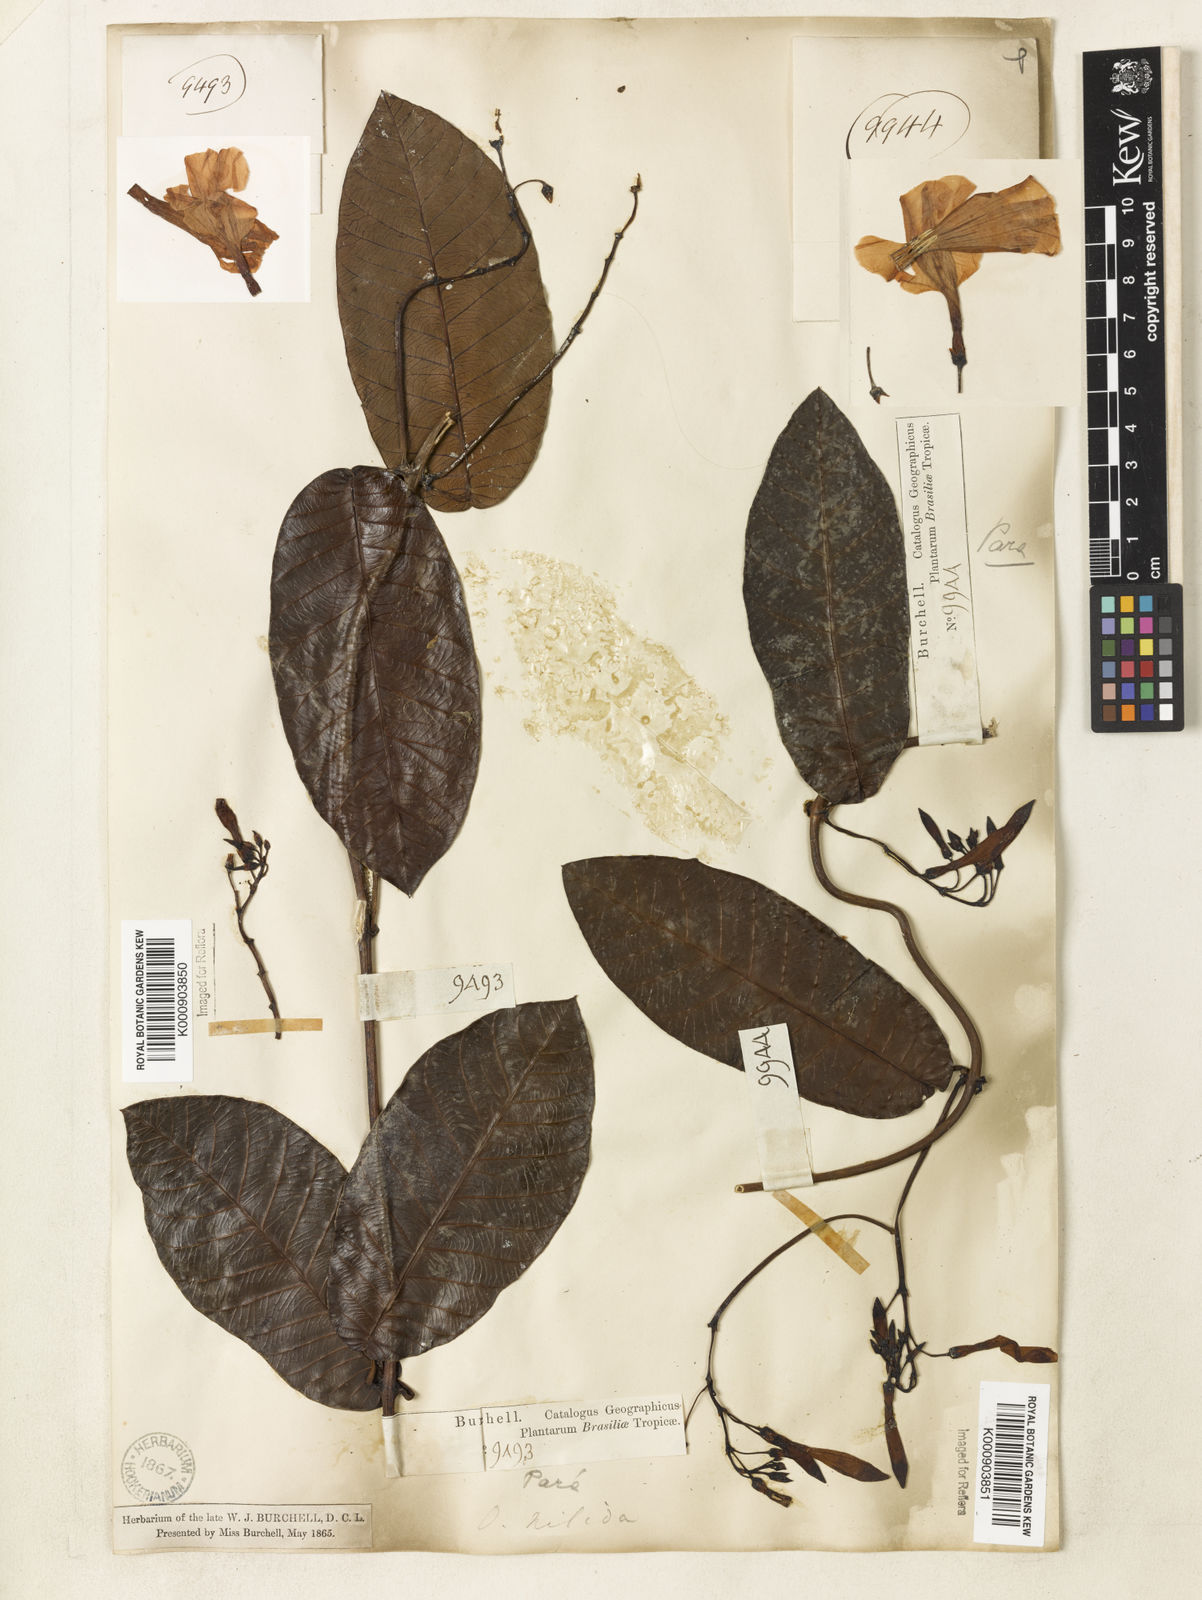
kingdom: Plantae
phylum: Tracheophyta
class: Magnoliopsida
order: Gentianales
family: Apocynaceae
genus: Odontadenia
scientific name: Odontadenia
